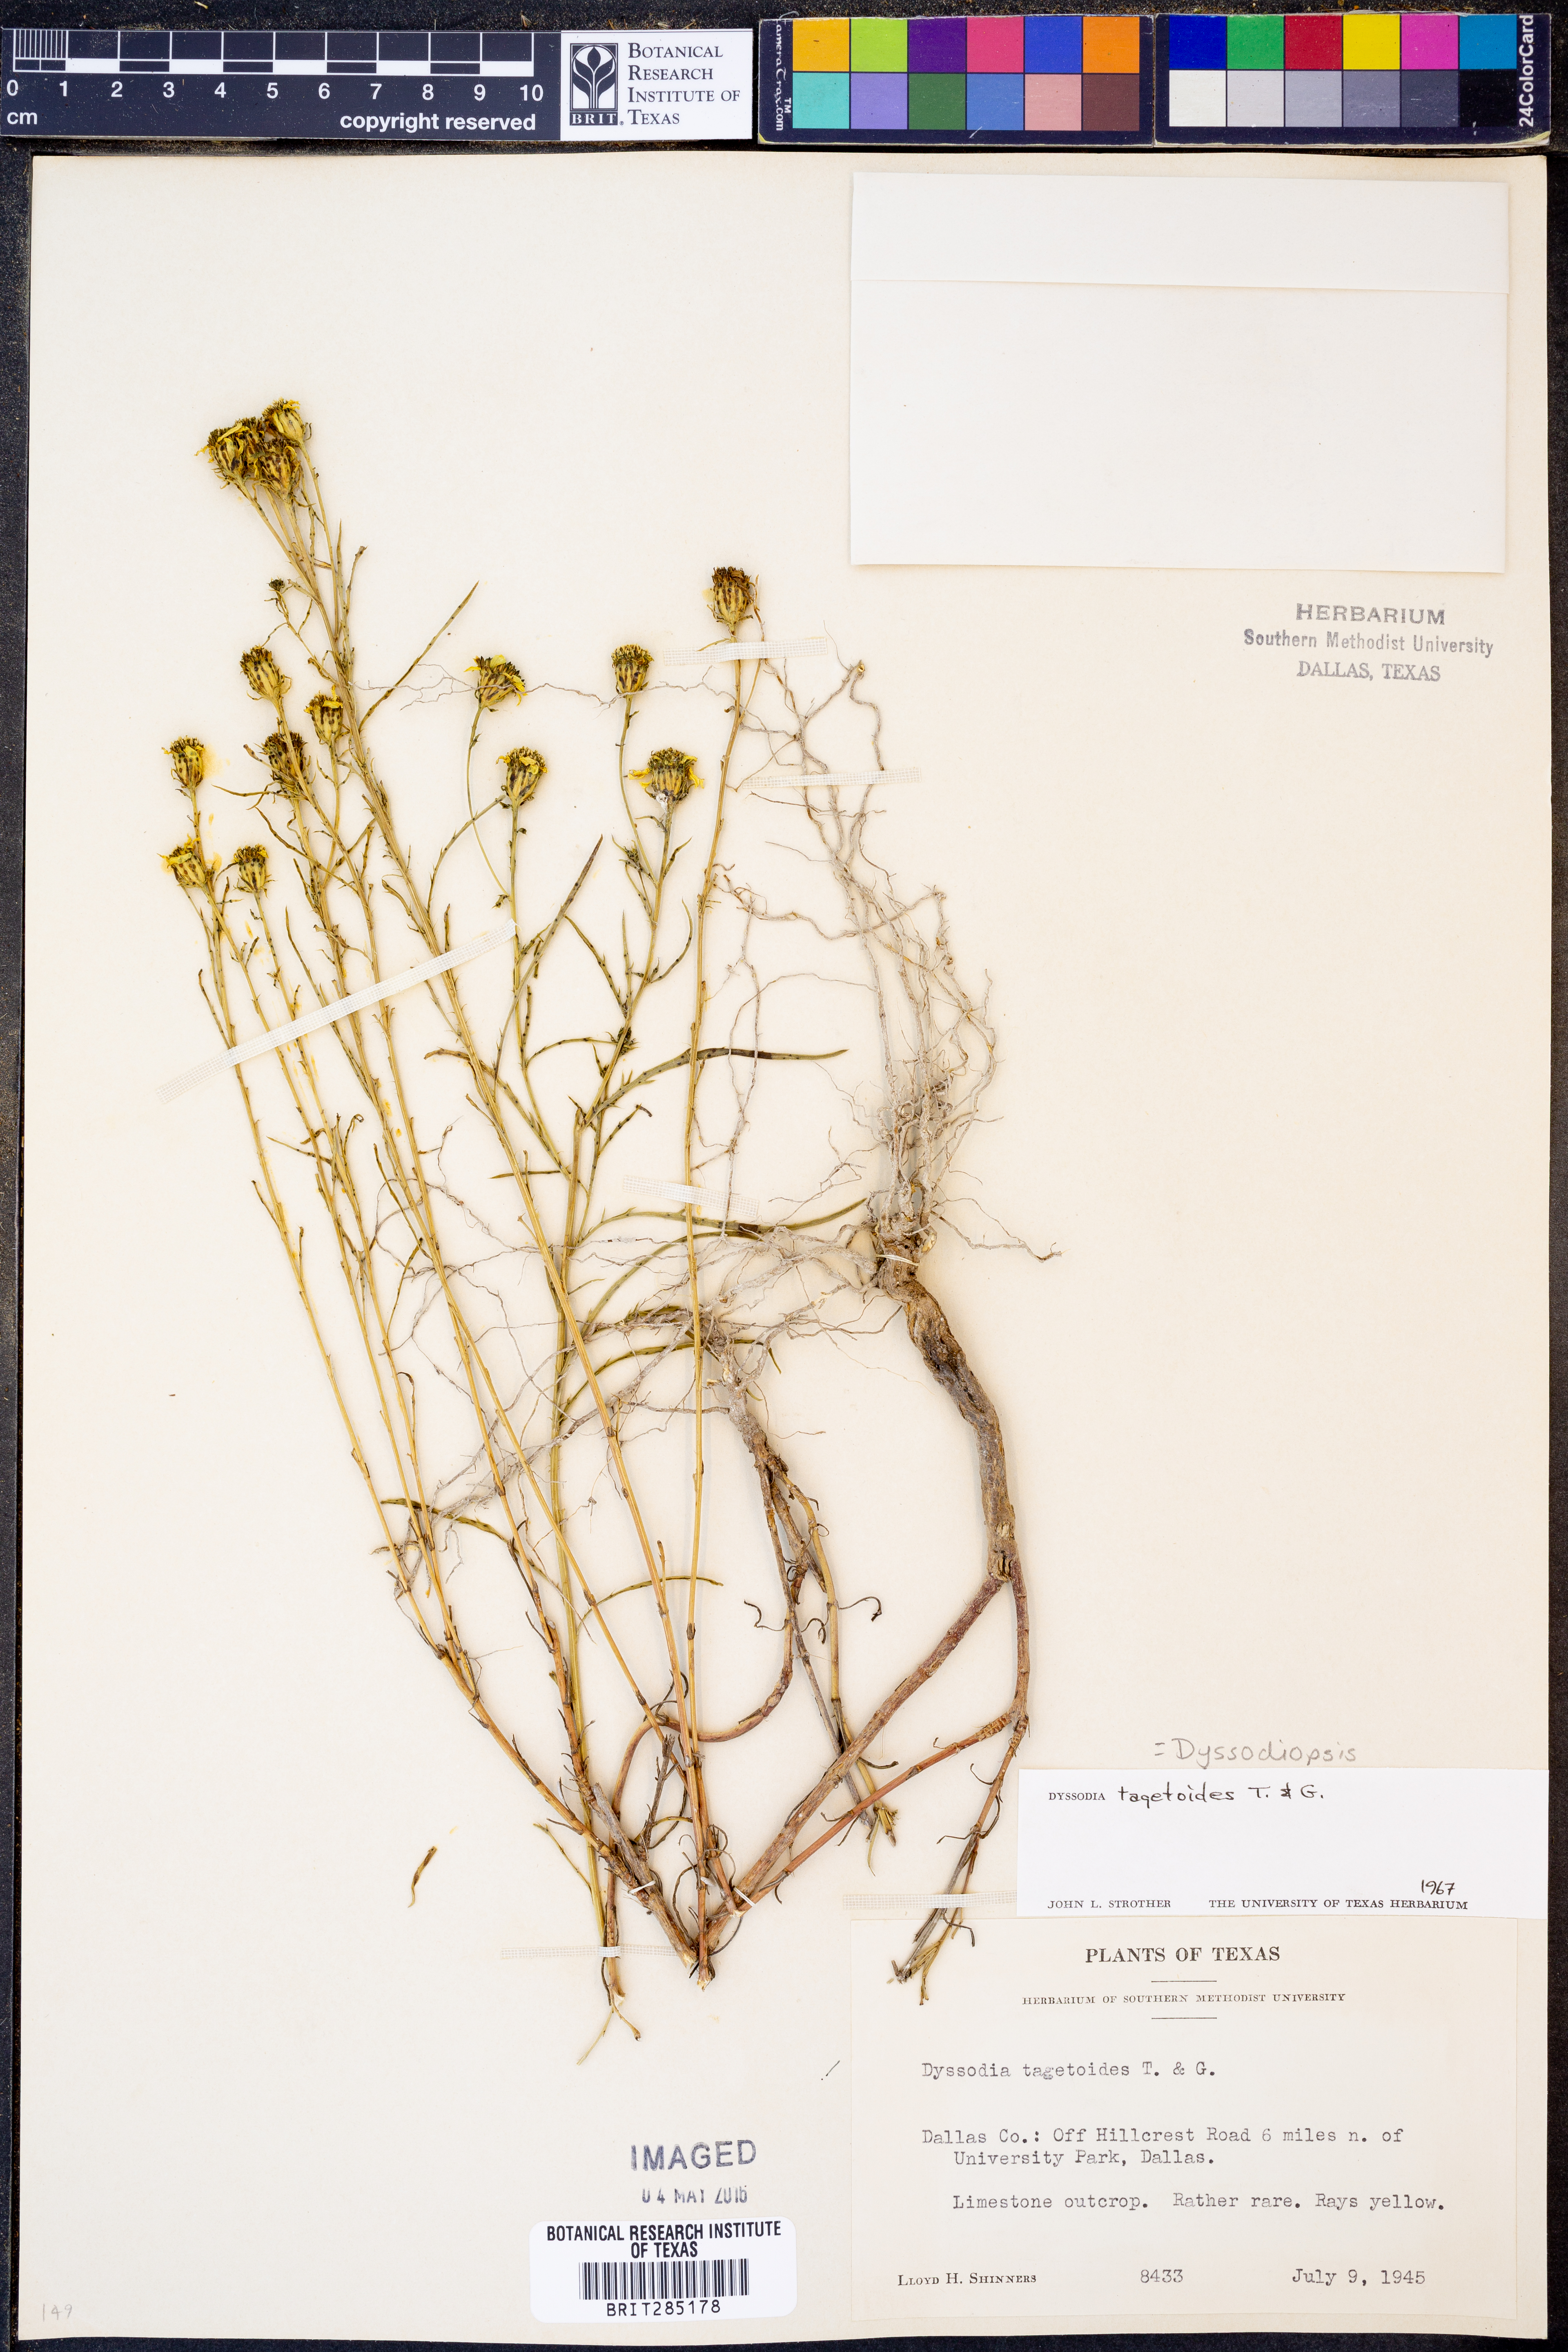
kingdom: Plantae
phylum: Tracheophyta
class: Magnoliopsida
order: Asterales
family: Asteraceae
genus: Dysodiopsis
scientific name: Dysodiopsis tagetoides
